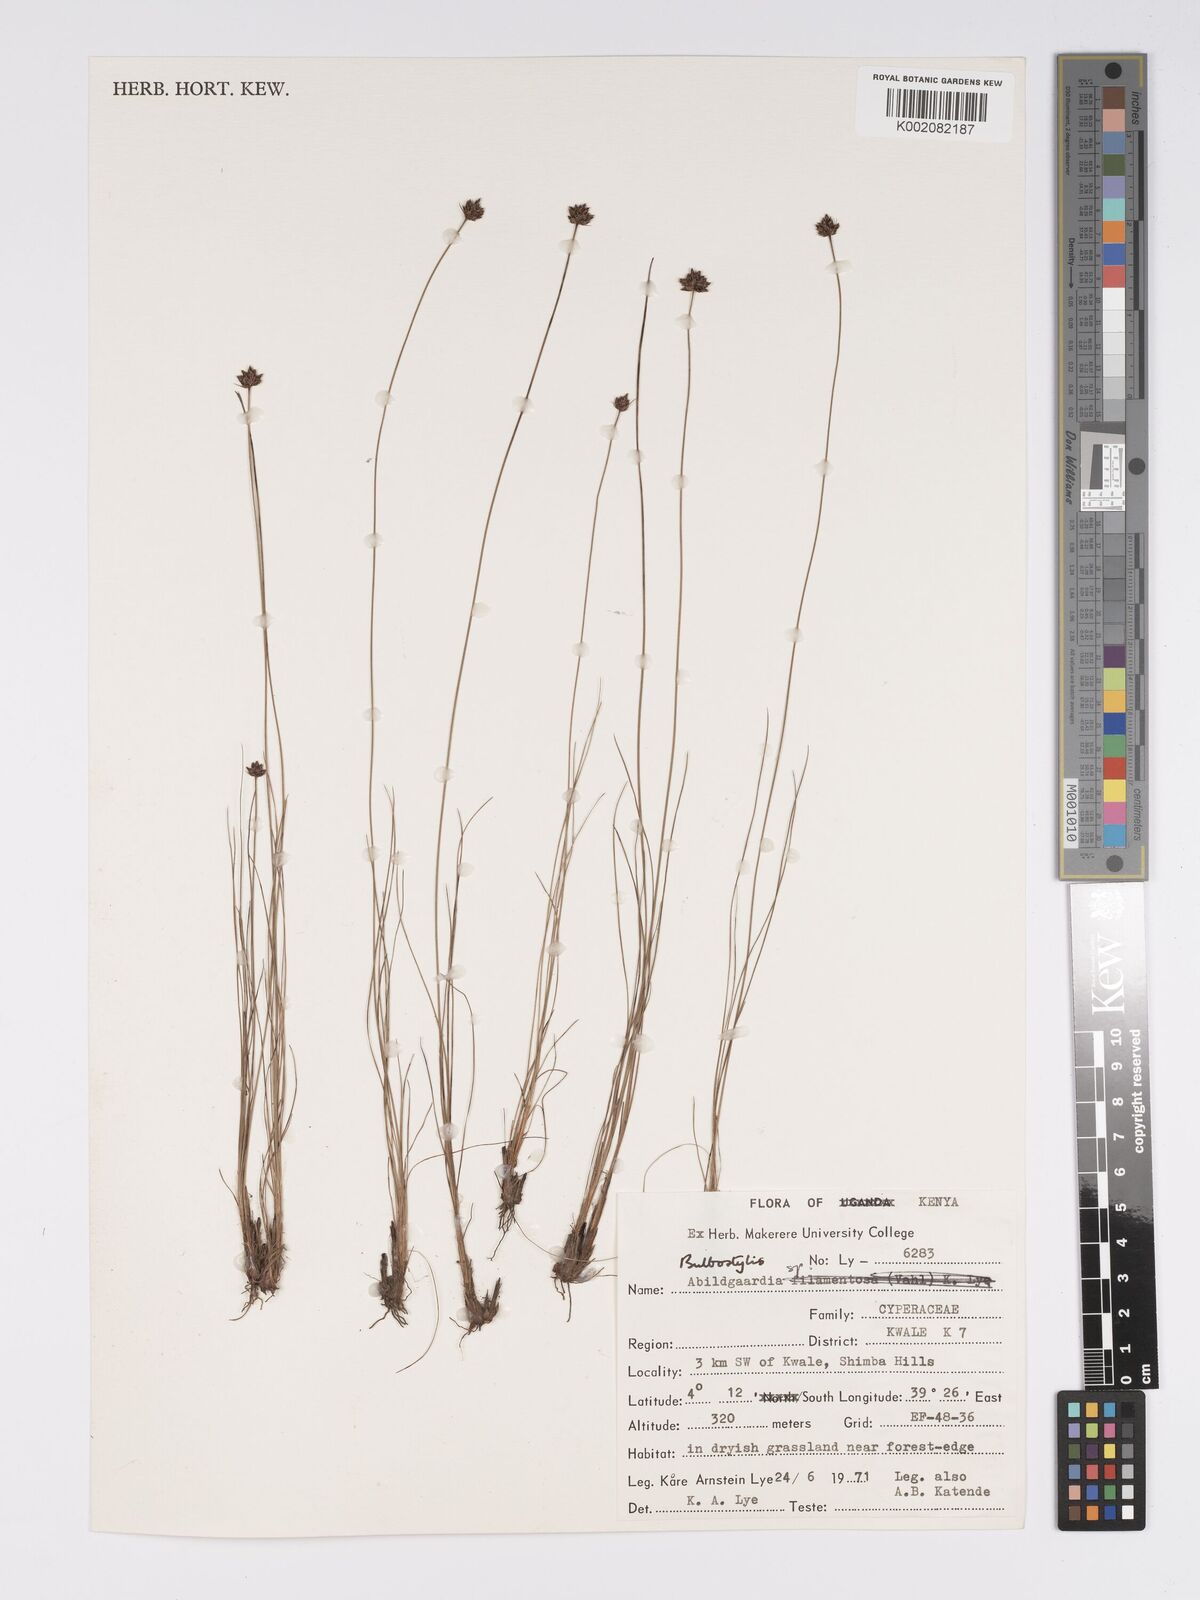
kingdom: Plantae
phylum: Tracheophyta
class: Liliopsida
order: Poales
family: Cyperaceae
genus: Bulbostylis
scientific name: Bulbostylis filamentosa
